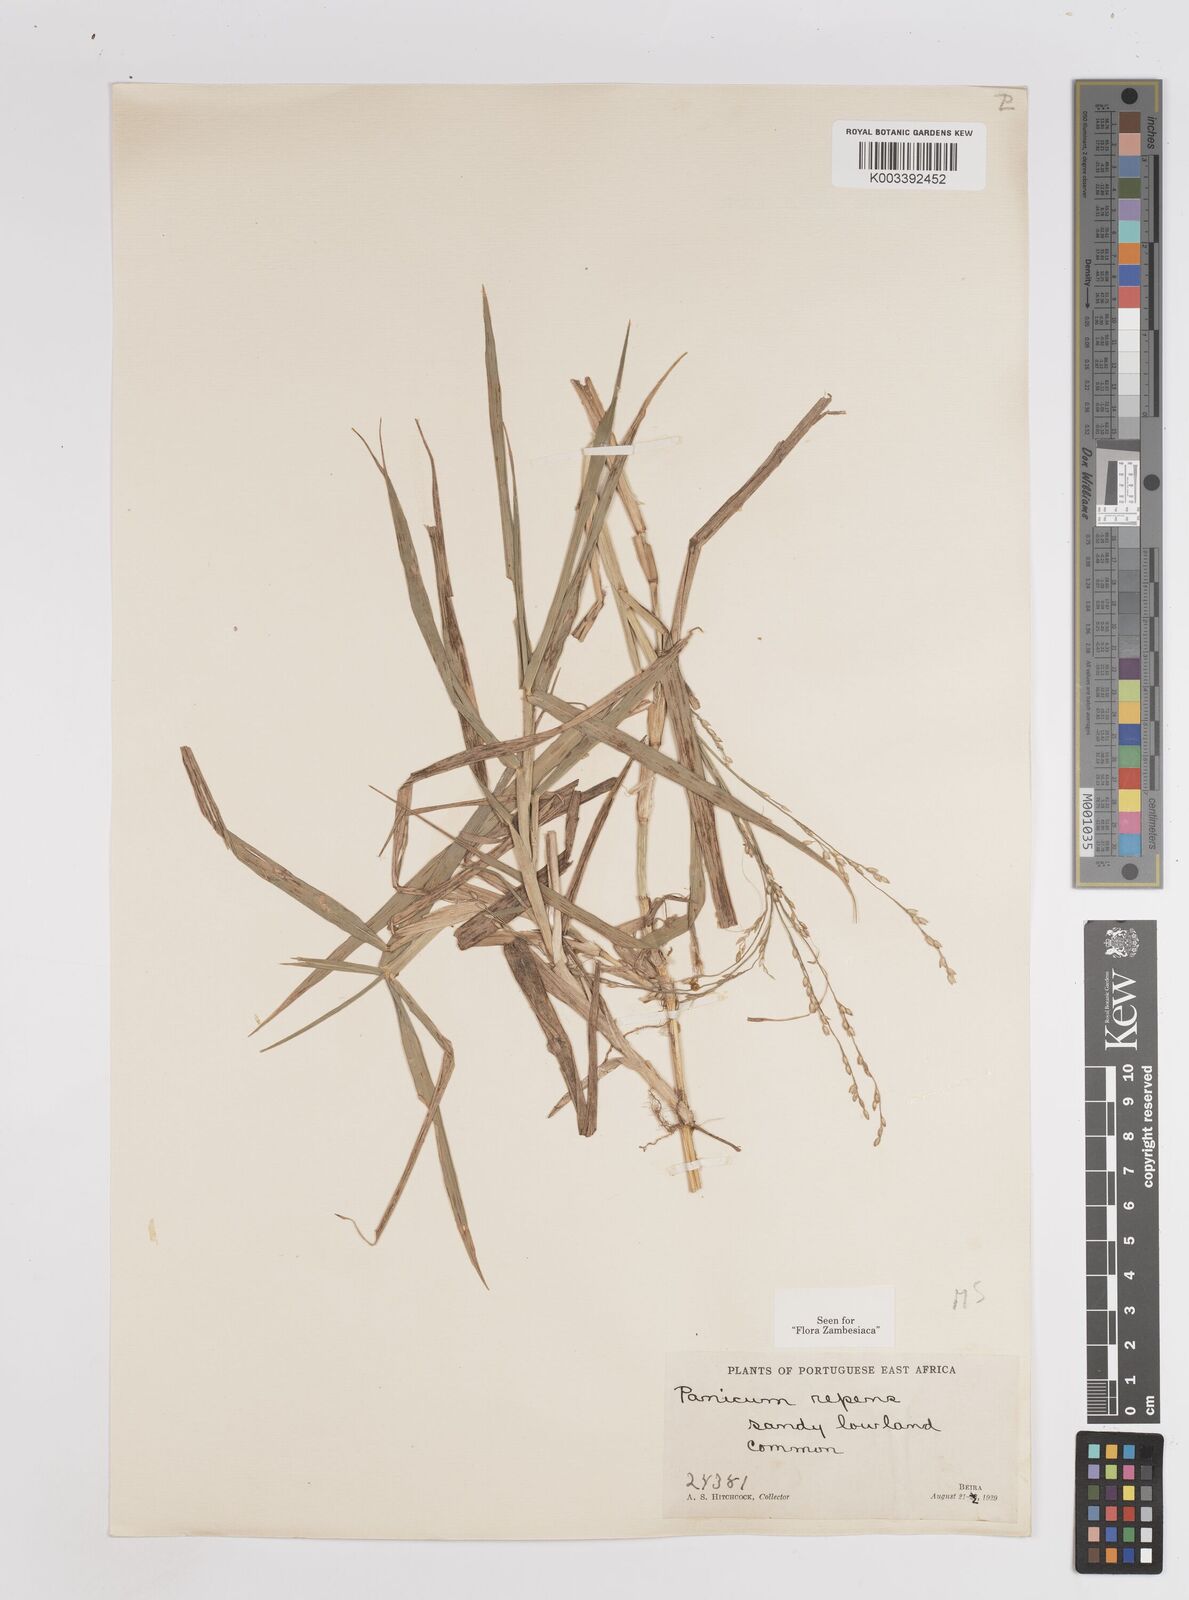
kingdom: Plantae
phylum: Tracheophyta
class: Liliopsida
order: Poales
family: Poaceae
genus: Panicum
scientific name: Panicum repens
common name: Torpedo grass
